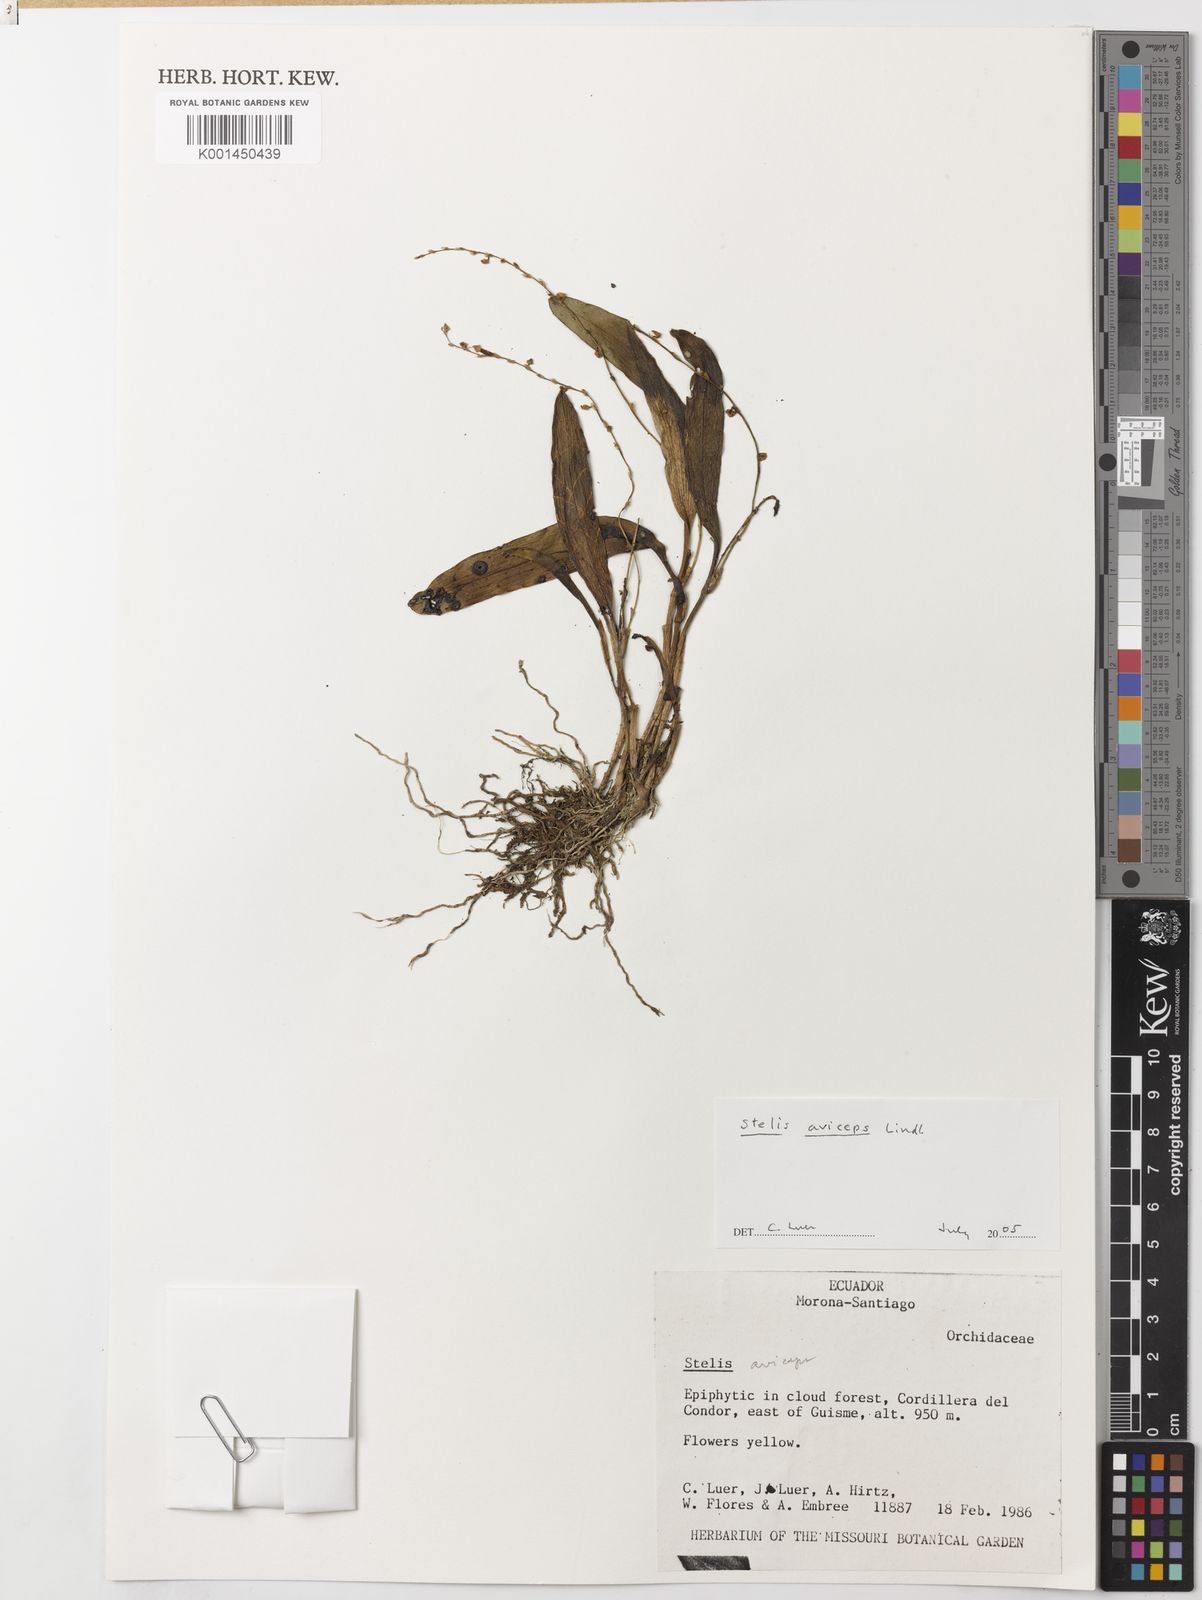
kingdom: Plantae
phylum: Tracheophyta
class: Liliopsida
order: Asparagales
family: Orchidaceae
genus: Stelis
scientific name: Stelis aviceps
